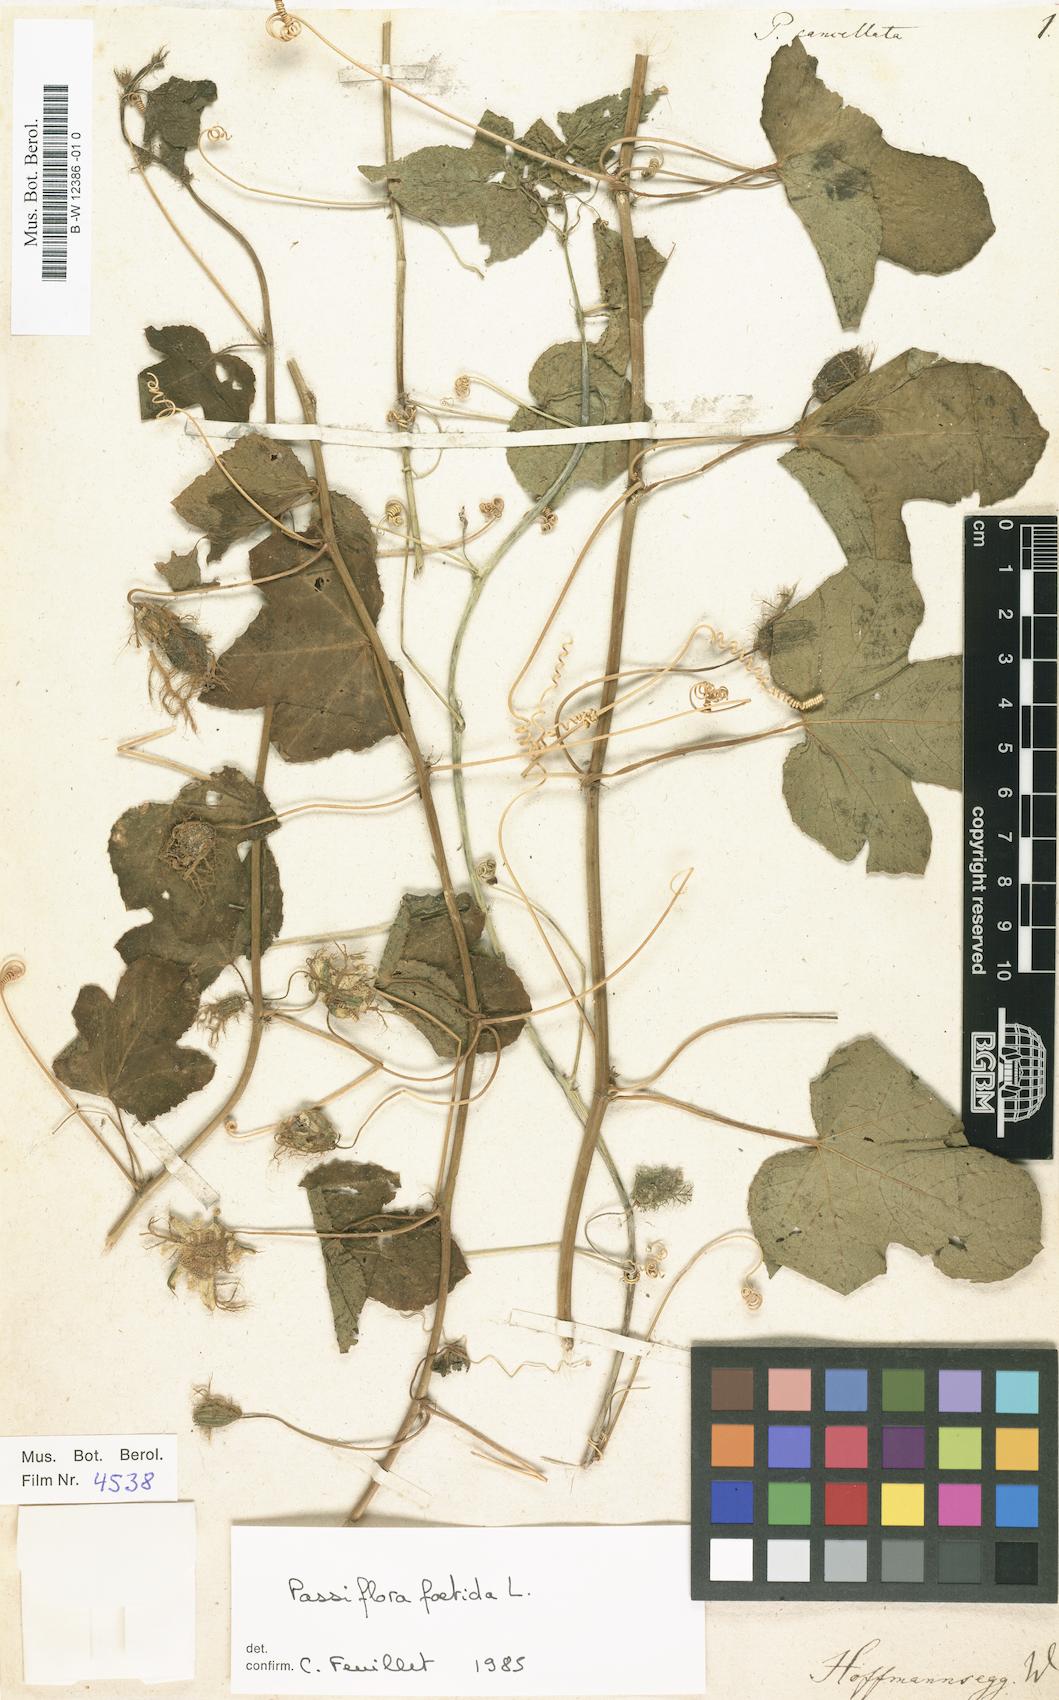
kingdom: Plantae
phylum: Tracheophyta
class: Magnoliopsida
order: Malpighiales
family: Passifloraceae
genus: Passiflora
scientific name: Passiflora
